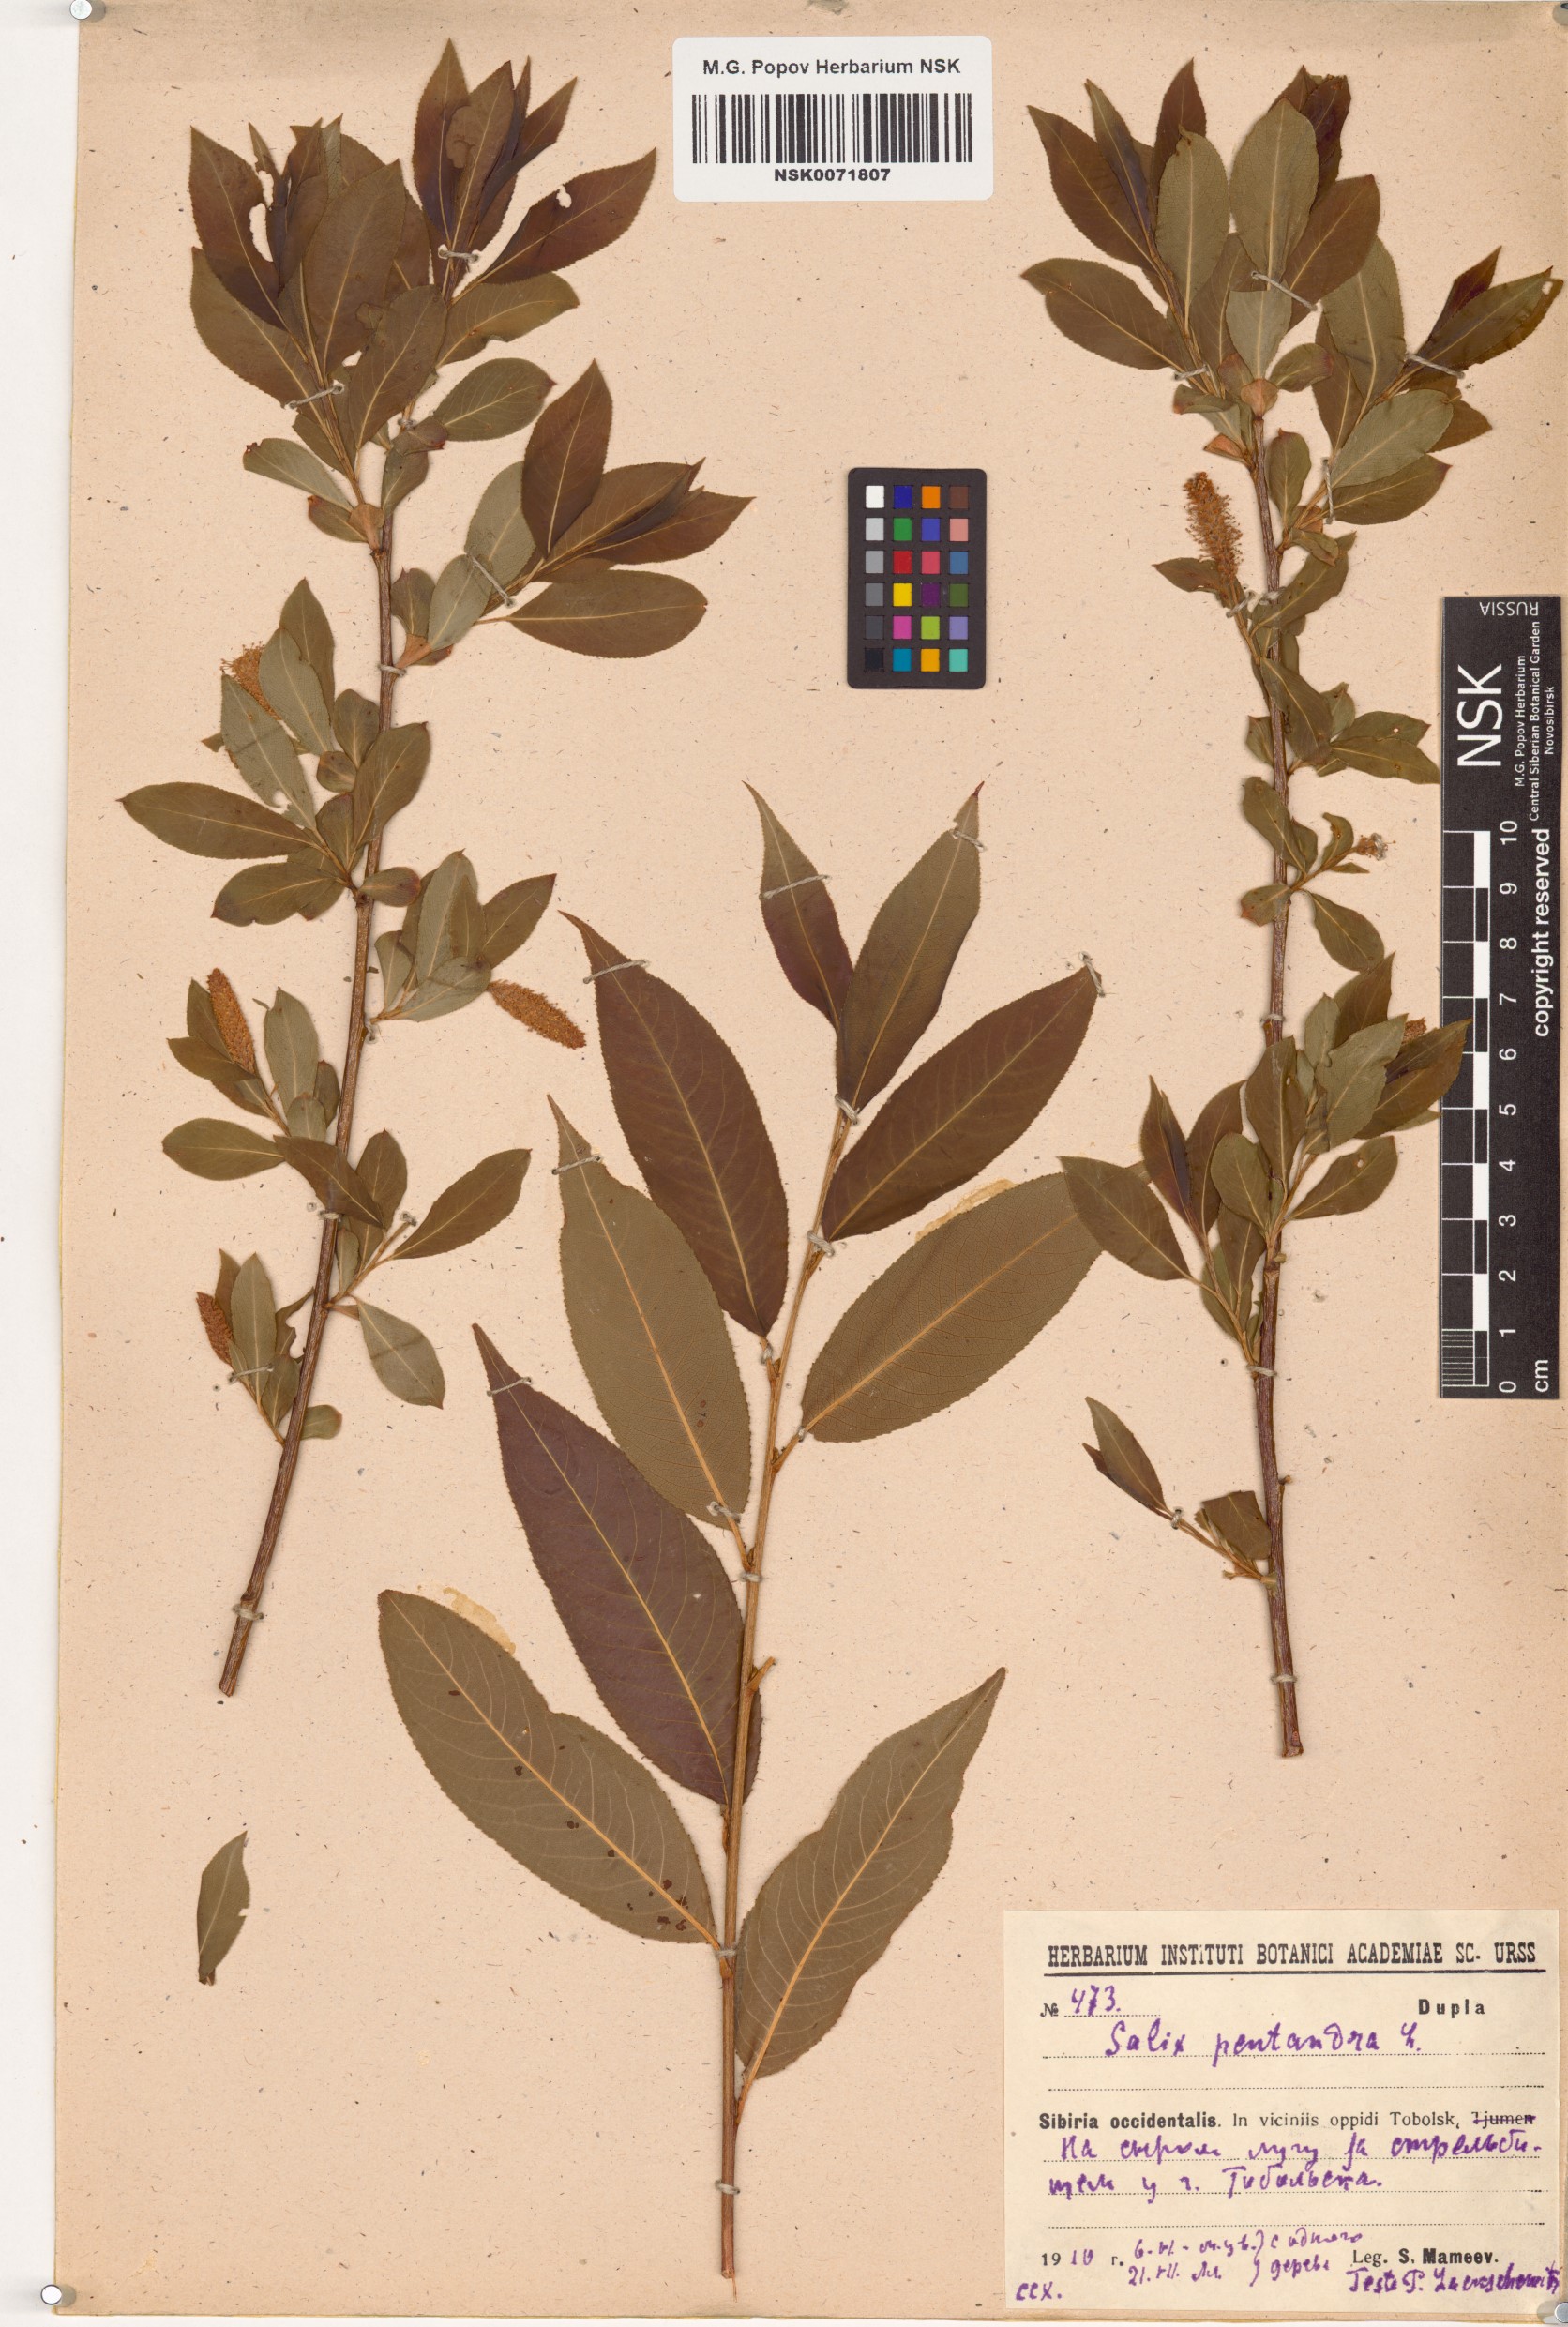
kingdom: Plantae
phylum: Tracheophyta
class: Magnoliopsida
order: Malpighiales
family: Salicaceae
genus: Salix
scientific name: Salix pentandra
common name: Bay willow
